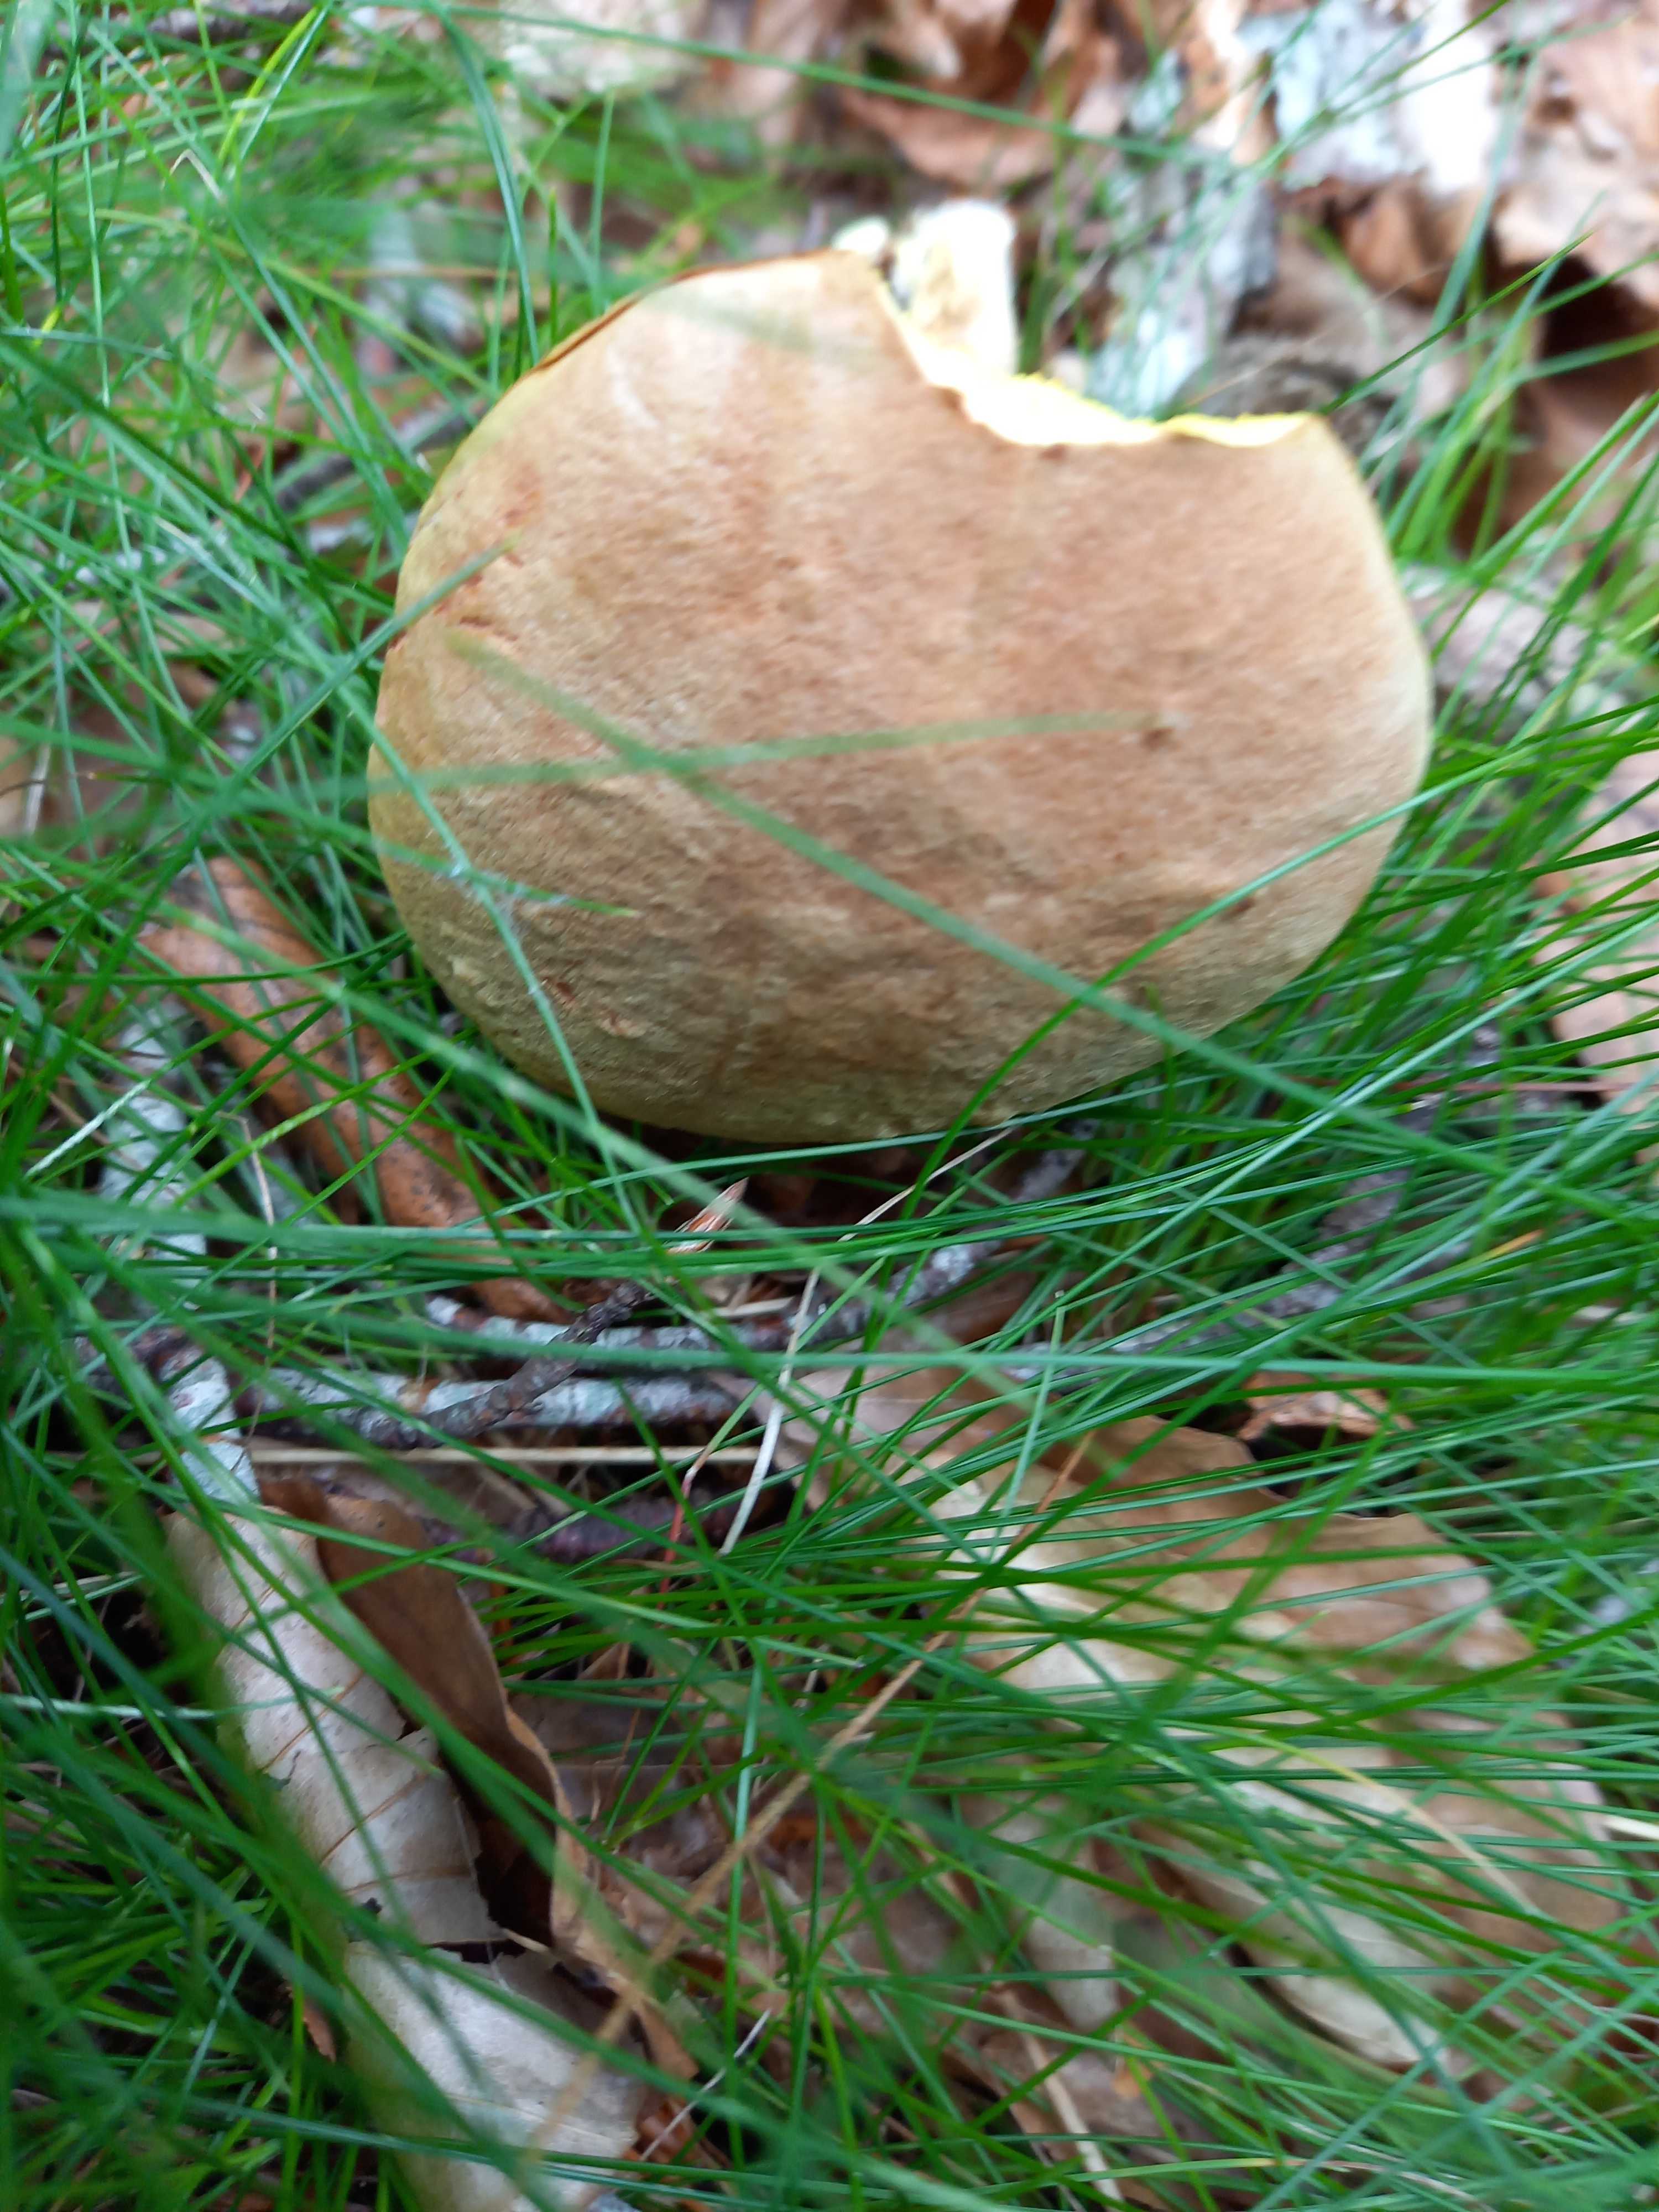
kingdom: Fungi
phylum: Basidiomycota
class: Agaricomycetes
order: Boletales
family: Boletaceae
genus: Xerocomus
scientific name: Xerocomus subtomentosus
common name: filtet rørhat
